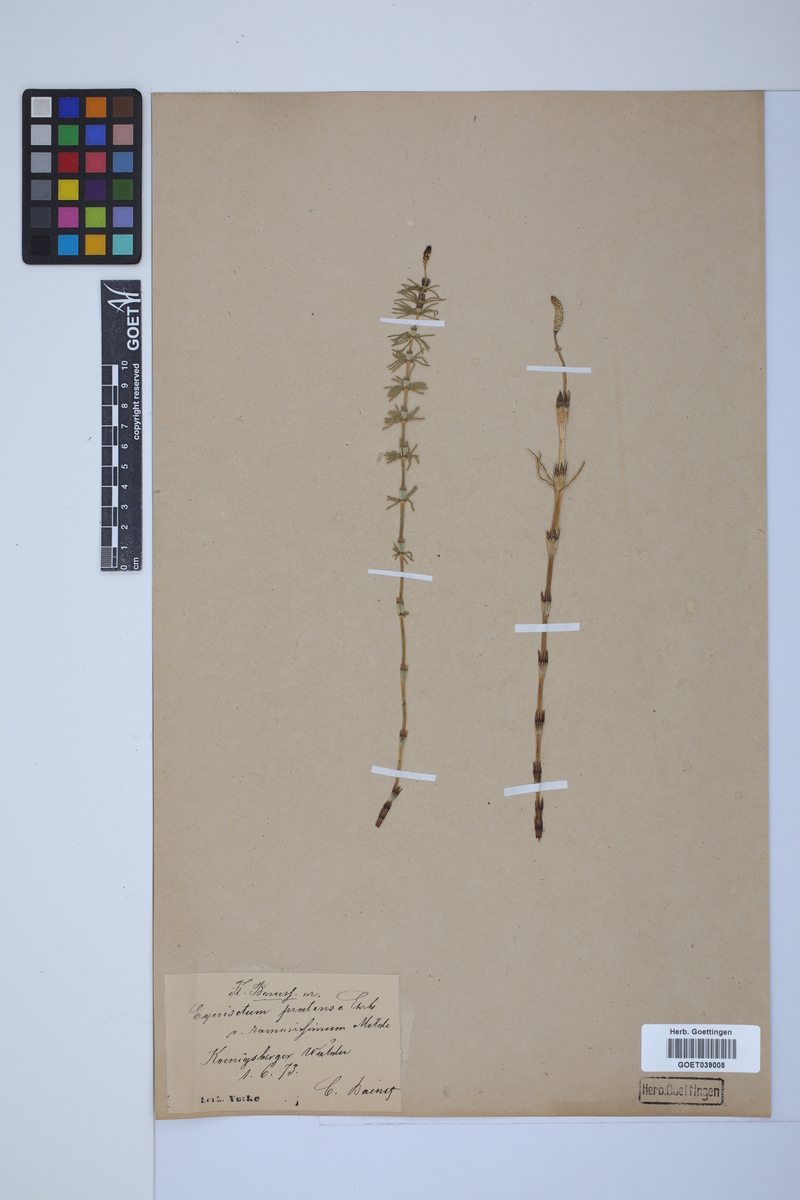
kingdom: Plantae
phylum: Tracheophyta
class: Polypodiopsida
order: Equisetales
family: Equisetaceae
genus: Equisetum
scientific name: Equisetum pratense
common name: Meadow horsetail
